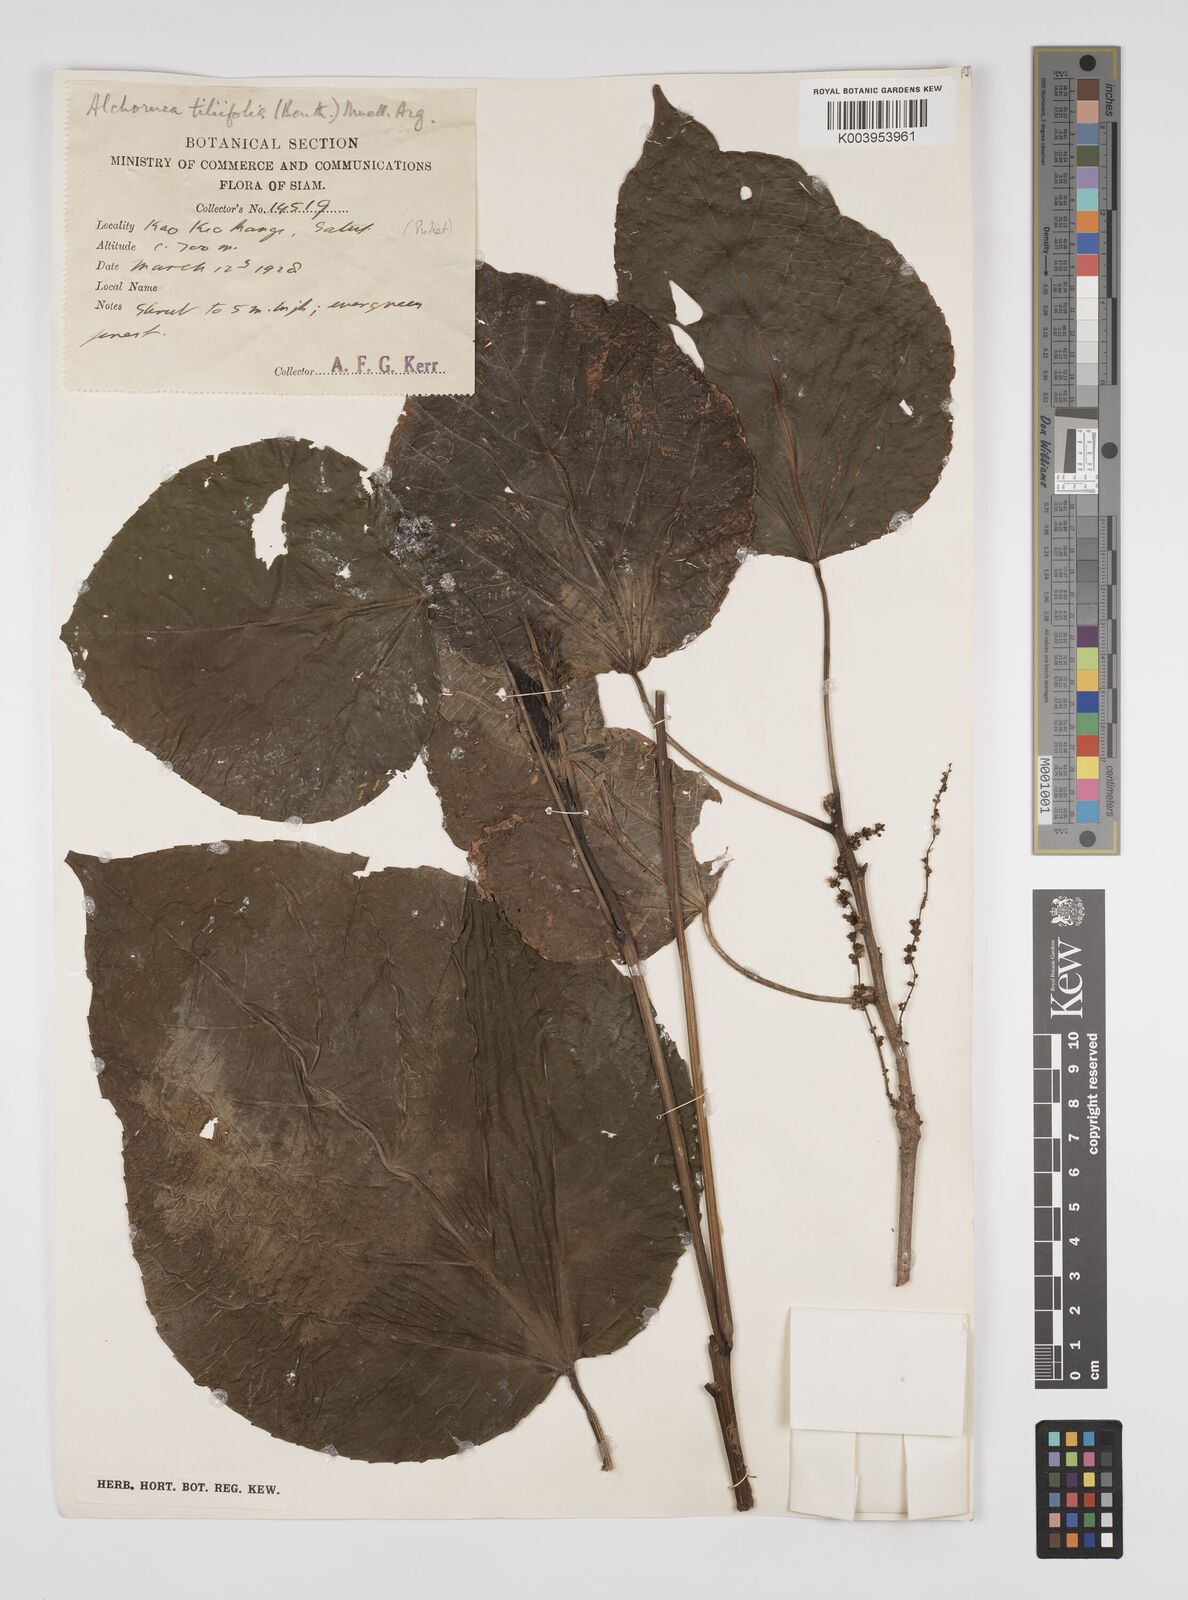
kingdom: Plantae
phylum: Tracheophyta
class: Magnoliopsida
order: Malpighiales
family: Euphorbiaceae
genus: Alchornea
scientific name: Alchornea tiliifolia
